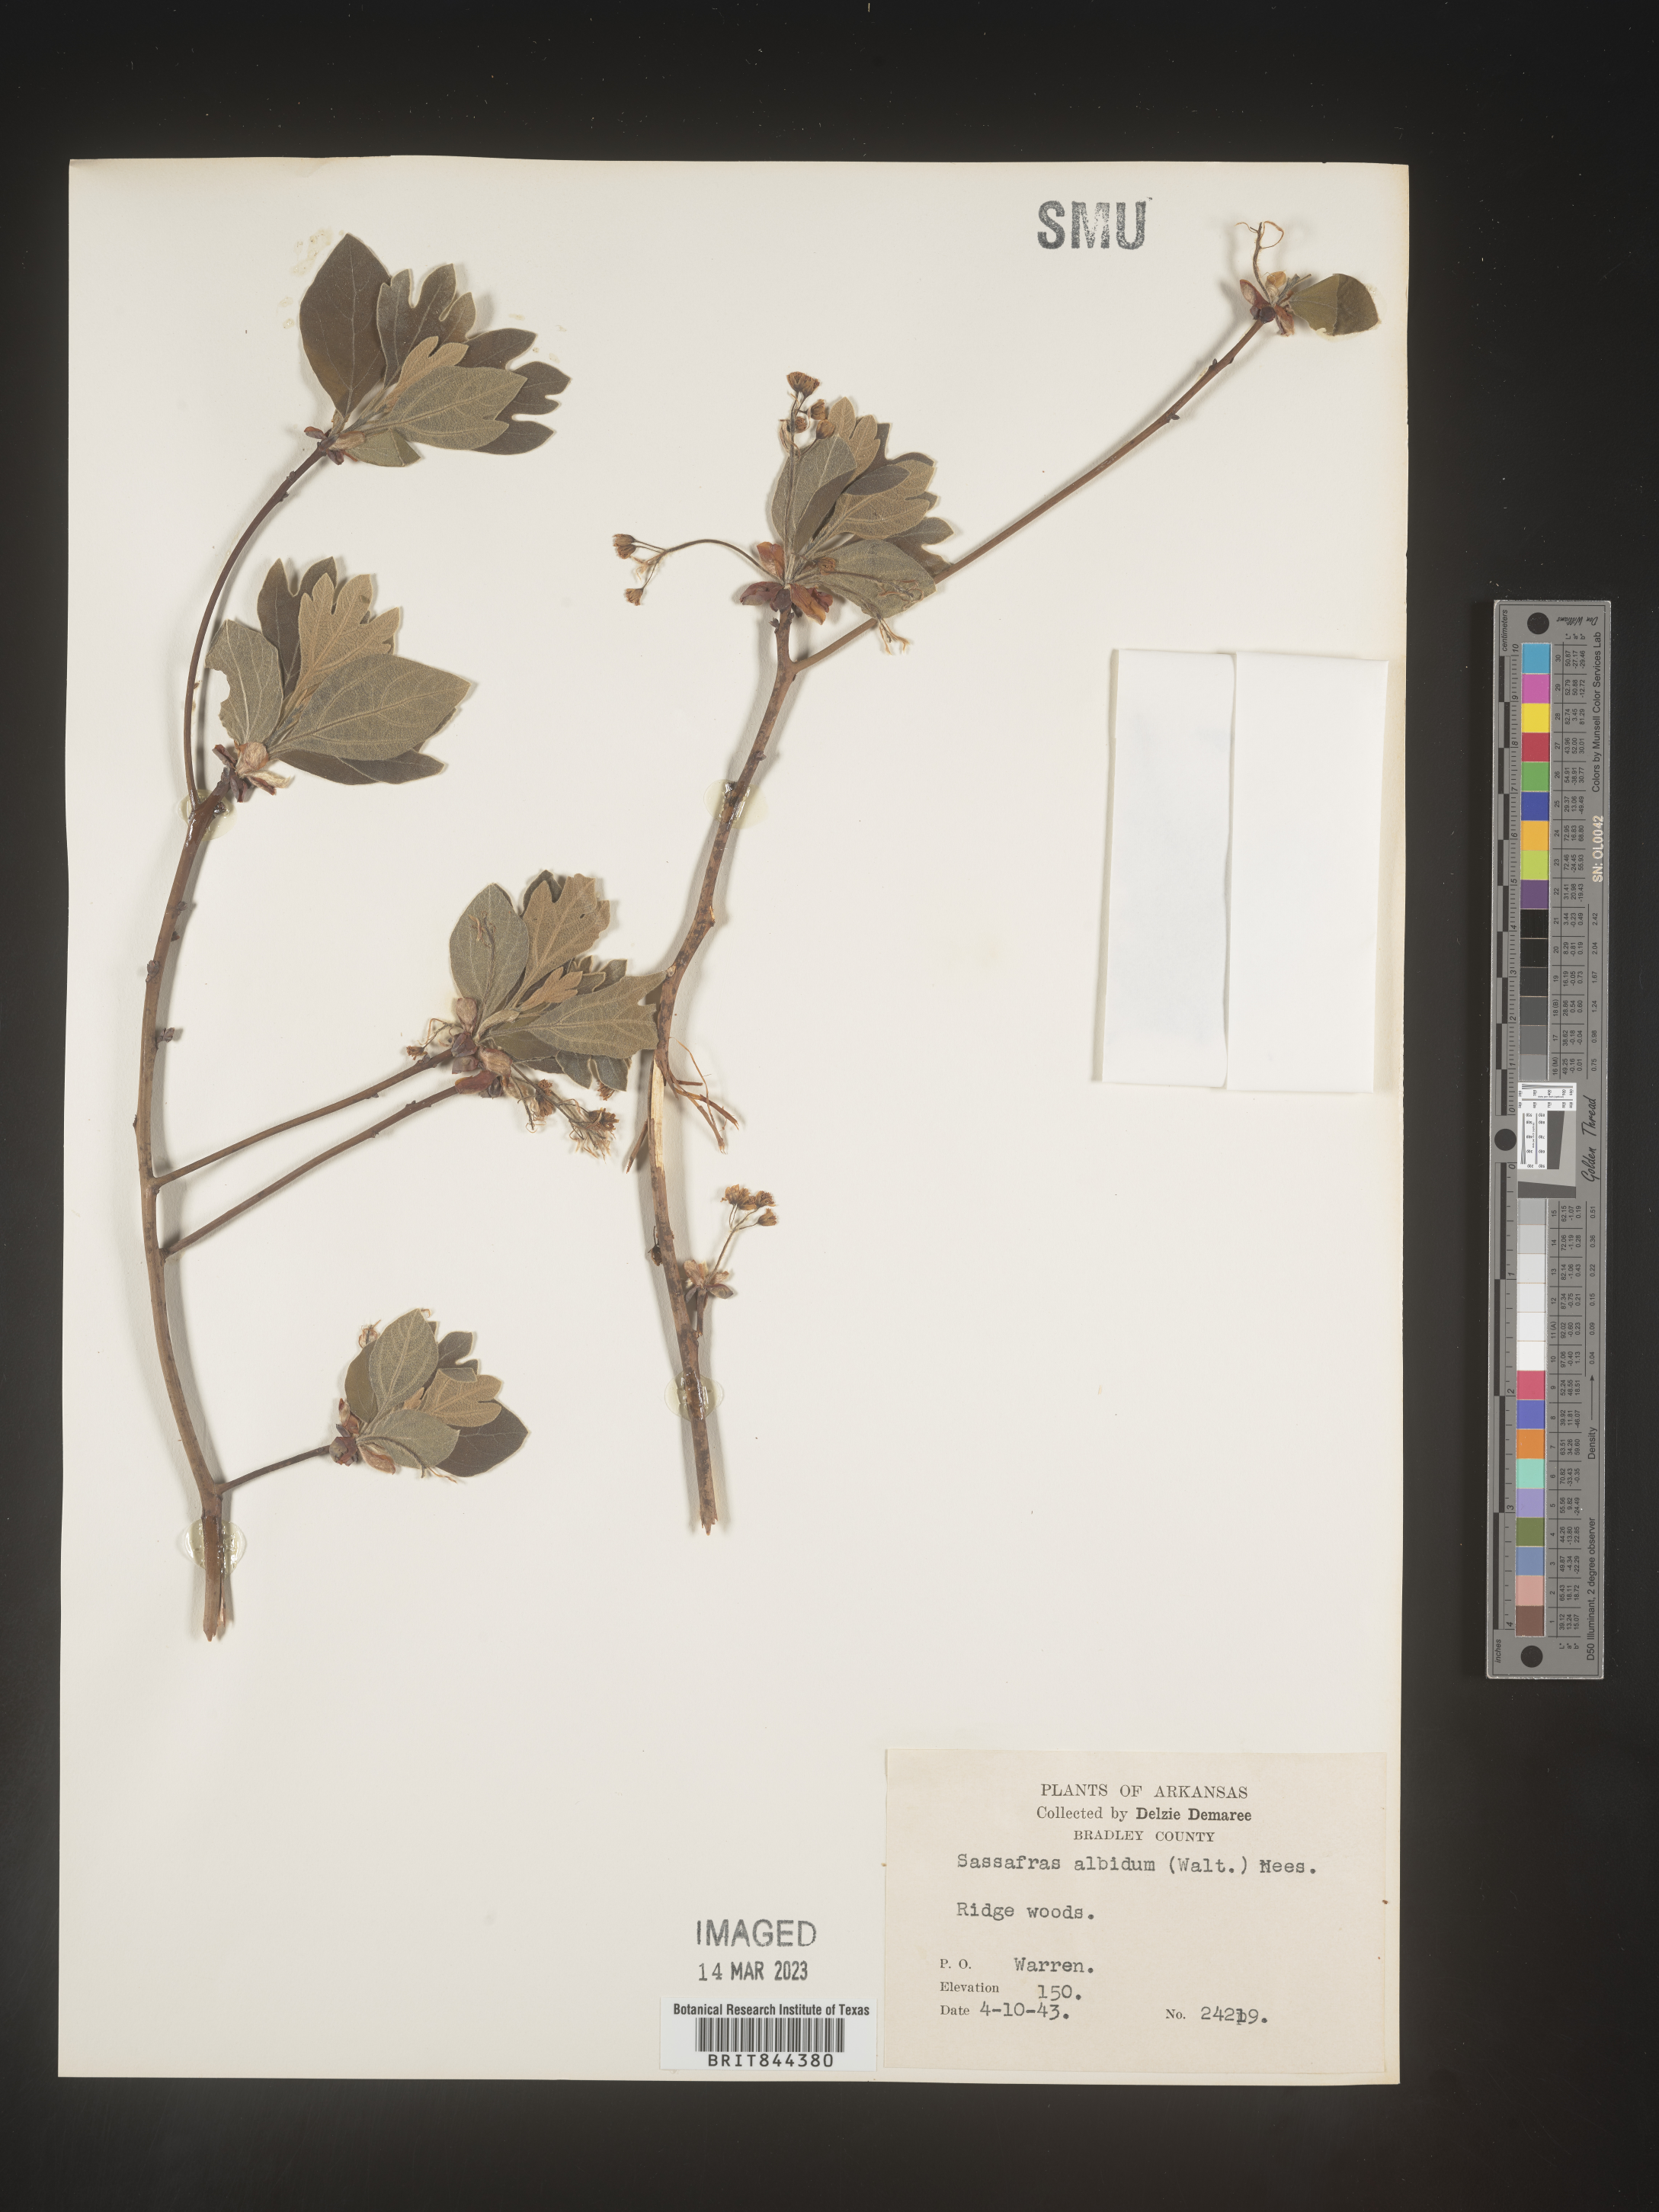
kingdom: Plantae
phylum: Tracheophyta
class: Magnoliopsida
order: Laurales
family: Lauraceae
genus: Sassafras
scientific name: Sassafras
